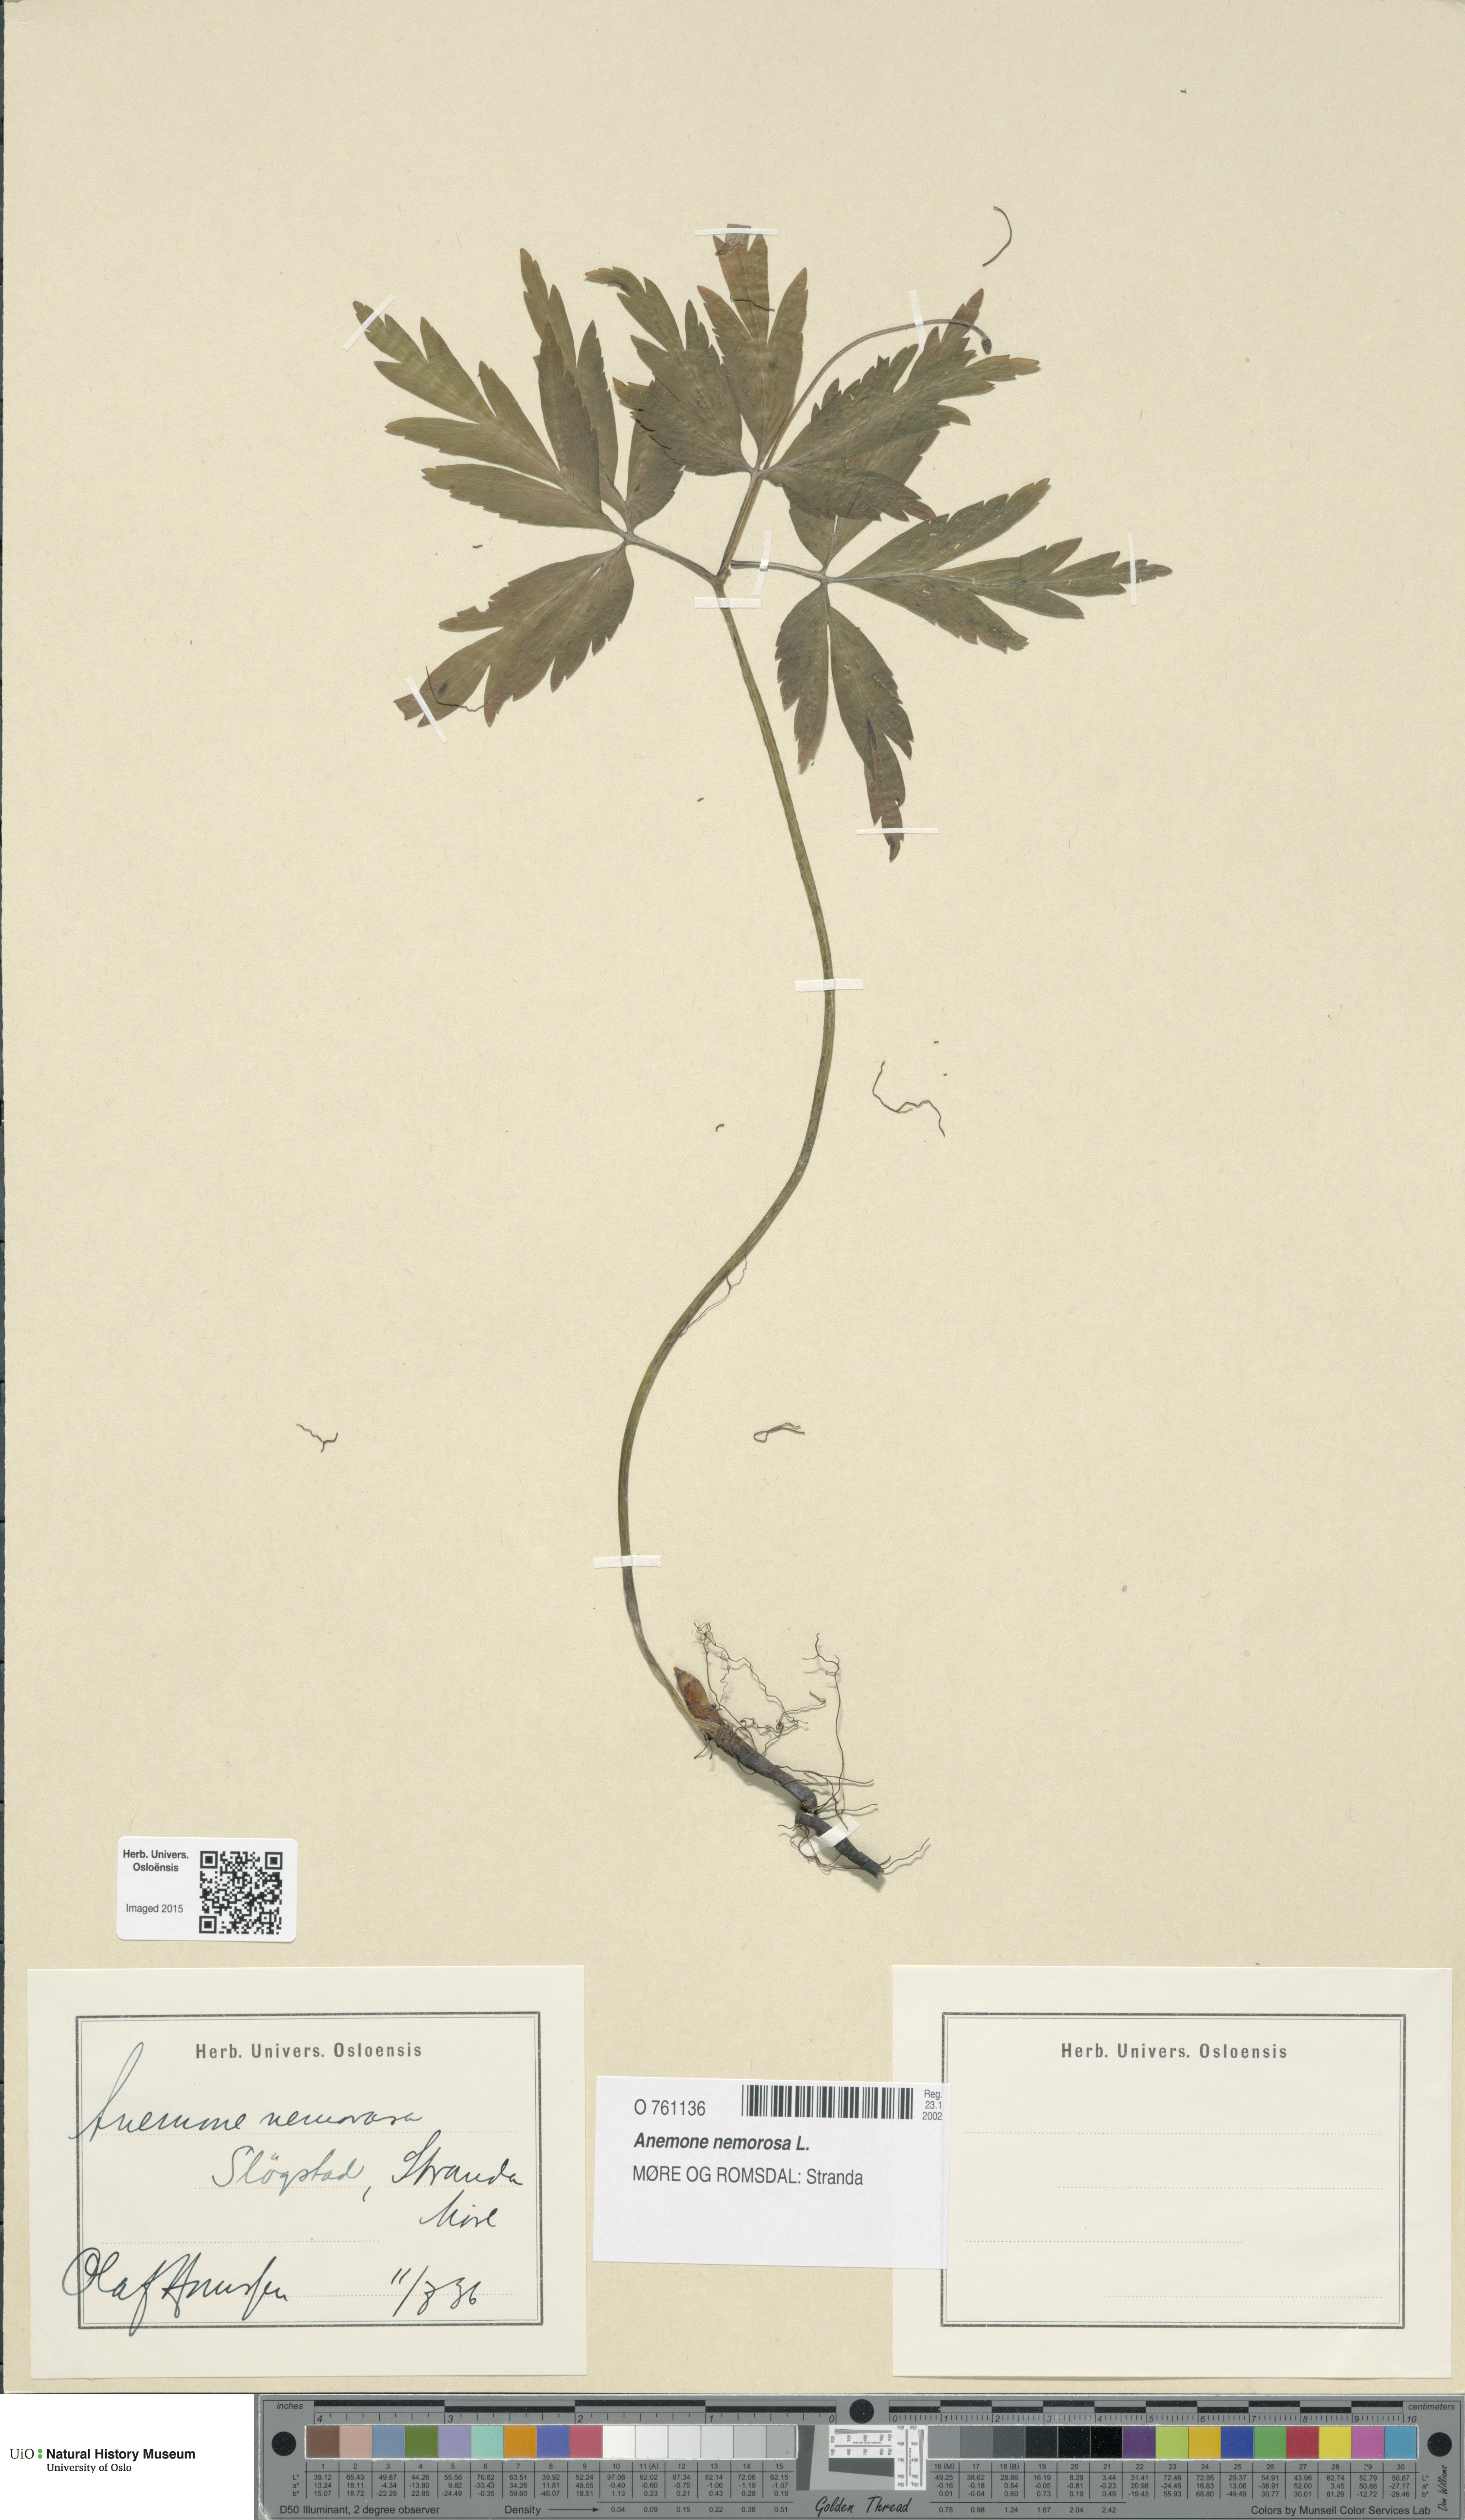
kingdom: Plantae
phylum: Tracheophyta
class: Magnoliopsida
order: Ranunculales
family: Ranunculaceae
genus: Anemone
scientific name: Anemone nemorosa
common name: Wood anemone
